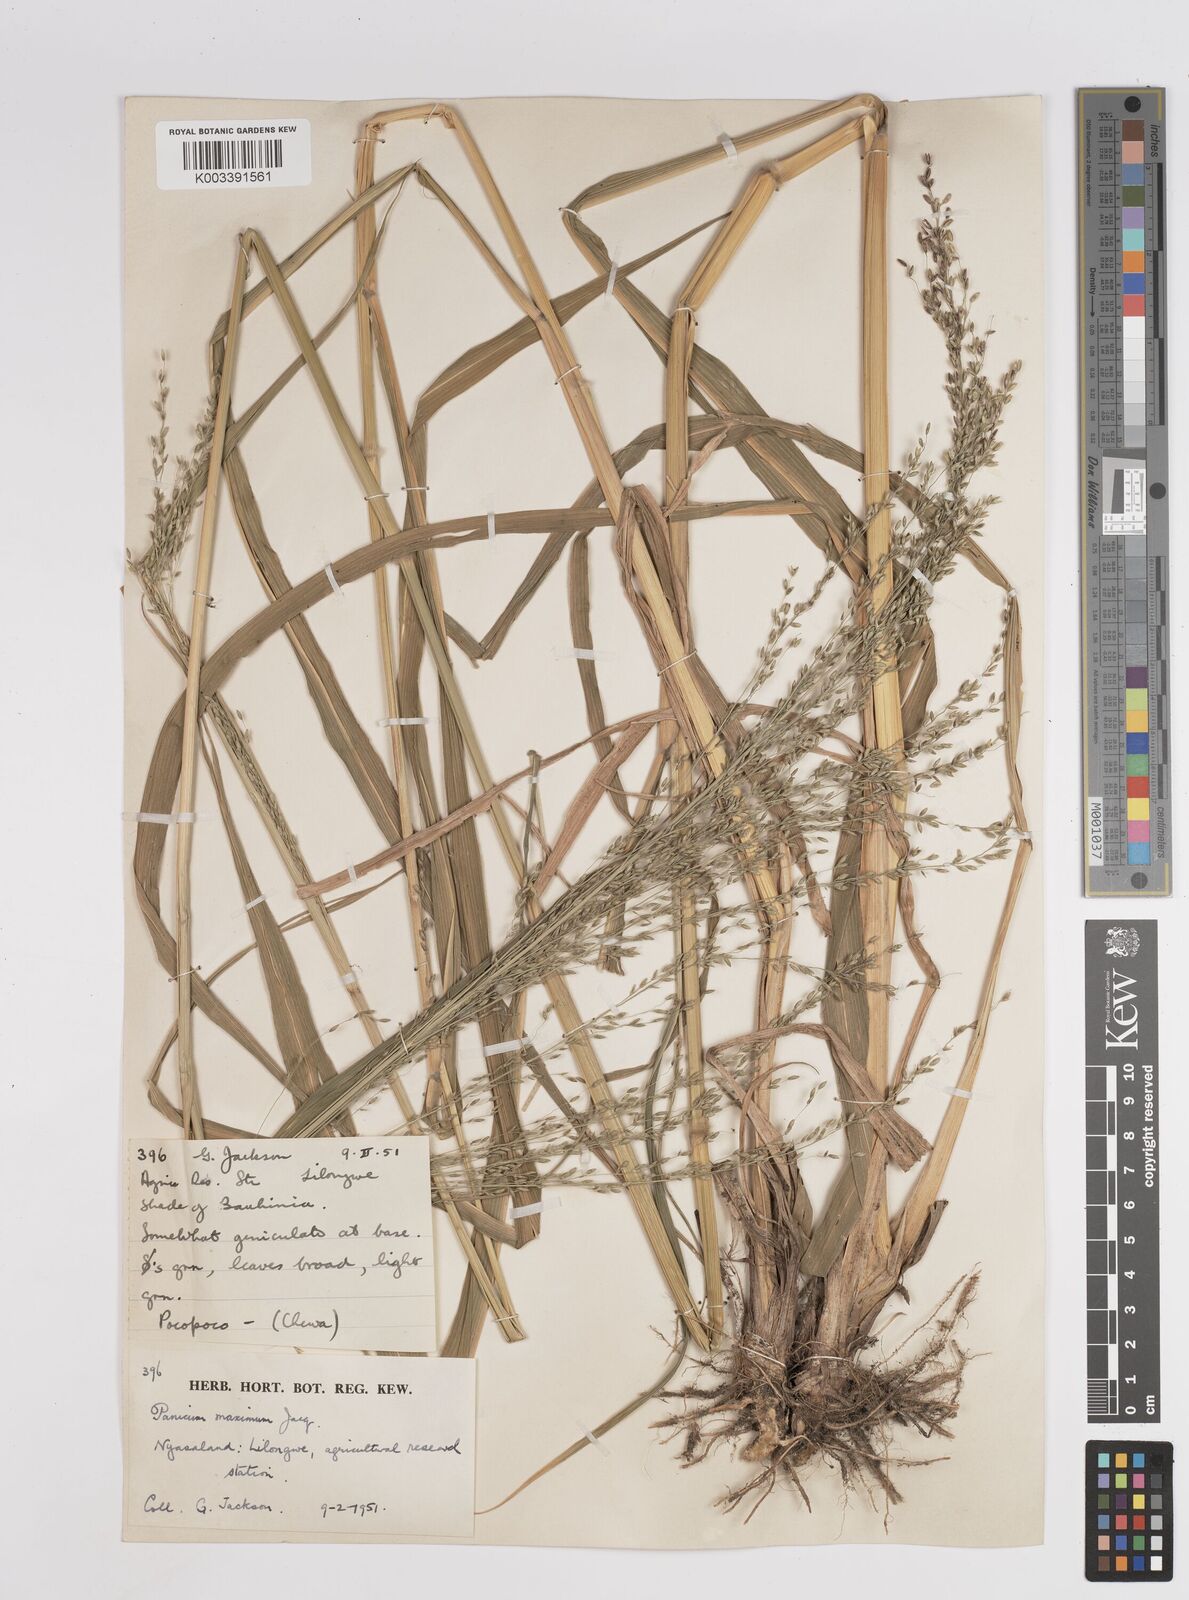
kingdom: Plantae
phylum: Tracheophyta
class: Liliopsida
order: Poales
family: Poaceae
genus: Megathyrsus
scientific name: Megathyrsus maximus
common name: Guineagrass
